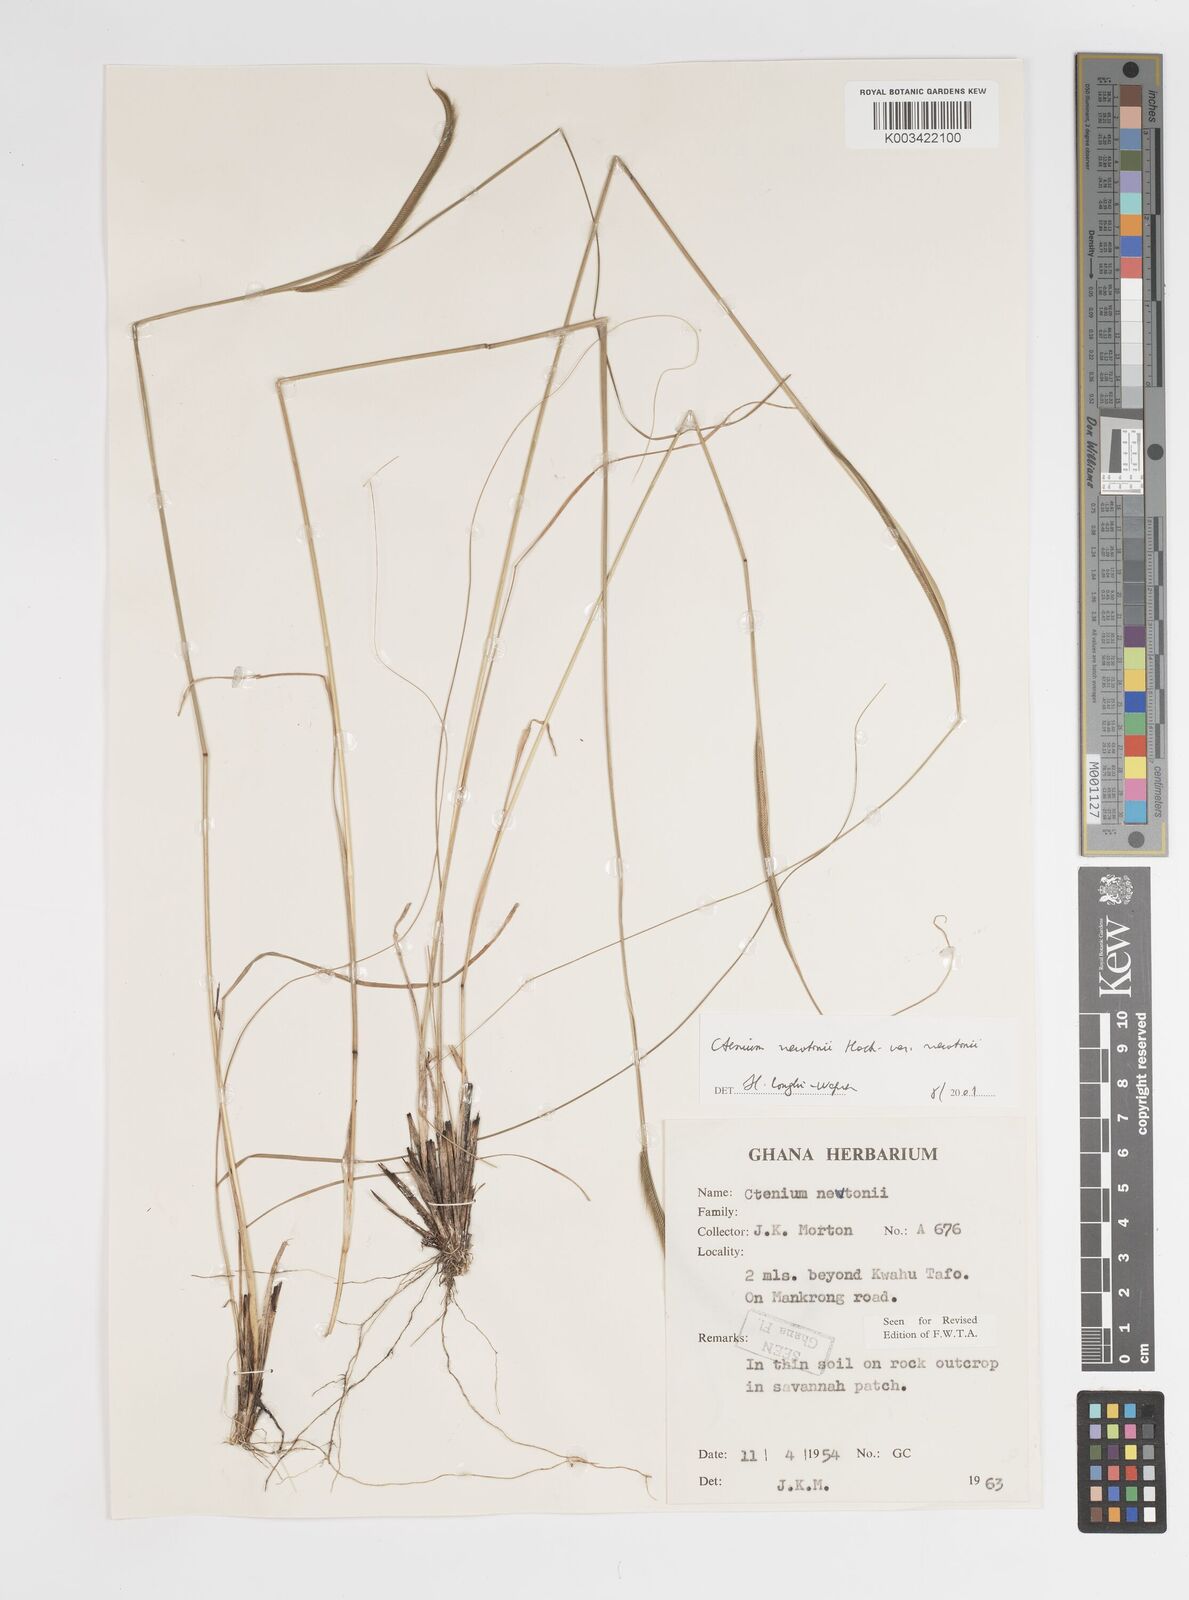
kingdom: Plantae
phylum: Tracheophyta
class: Liliopsida
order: Poales
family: Poaceae
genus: Ctenium
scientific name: Ctenium newtonii
